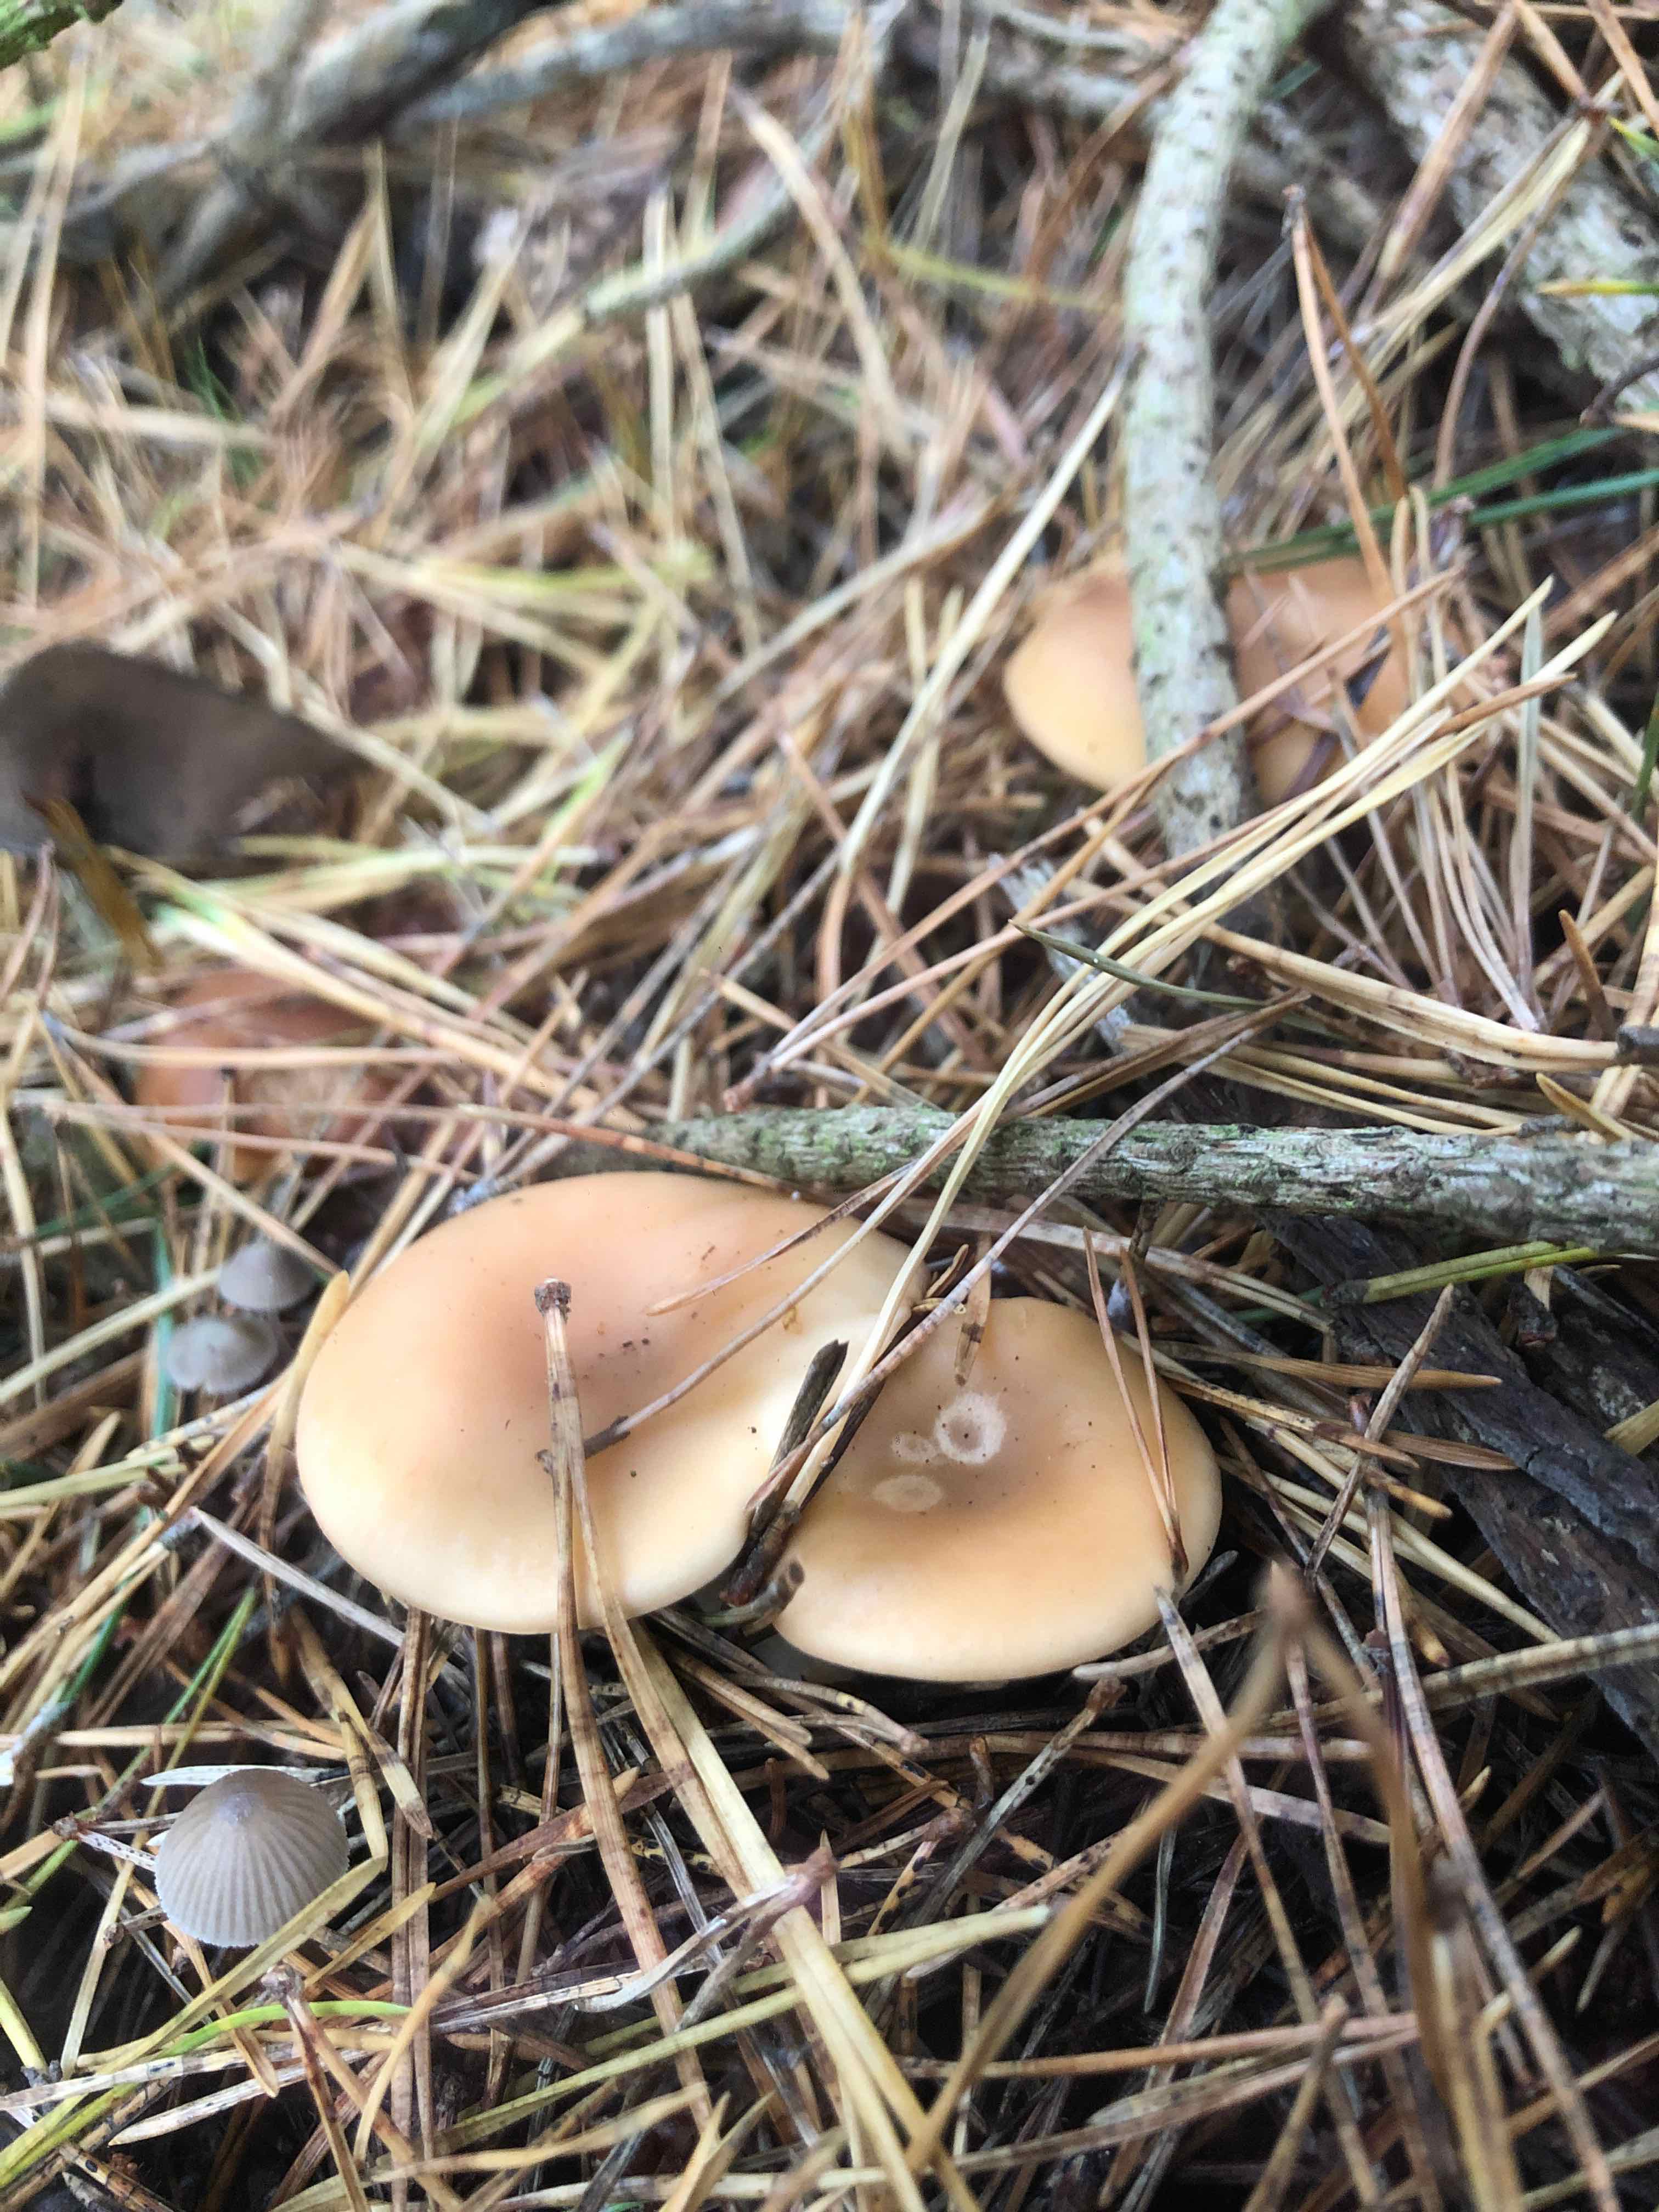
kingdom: Fungi
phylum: Basidiomycota
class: Agaricomycetes
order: Agaricales
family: Tricholomataceae
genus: Paralepista
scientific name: Paralepista flaccida
